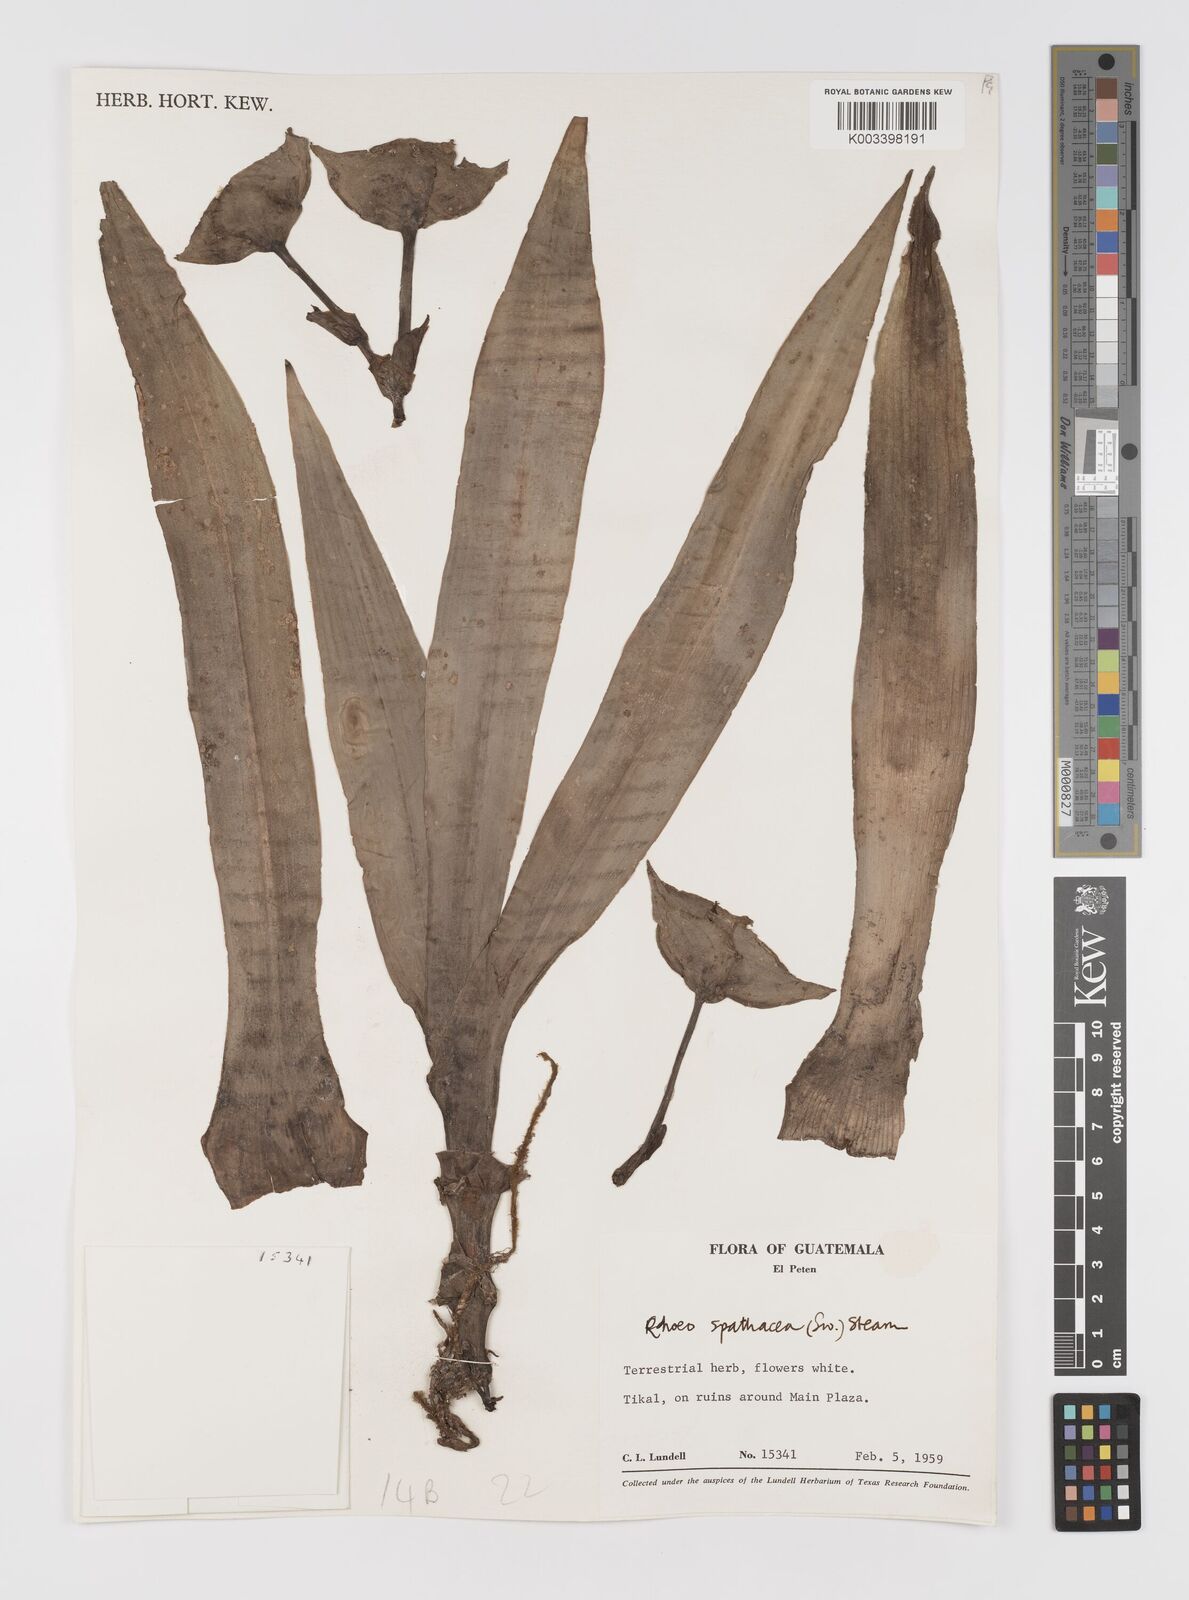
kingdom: Plantae
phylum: Tracheophyta
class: Liliopsida
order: Commelinales
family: Commelinaceae
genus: Tradescantia
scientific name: Tradescantia spathacea
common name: Boatlily
